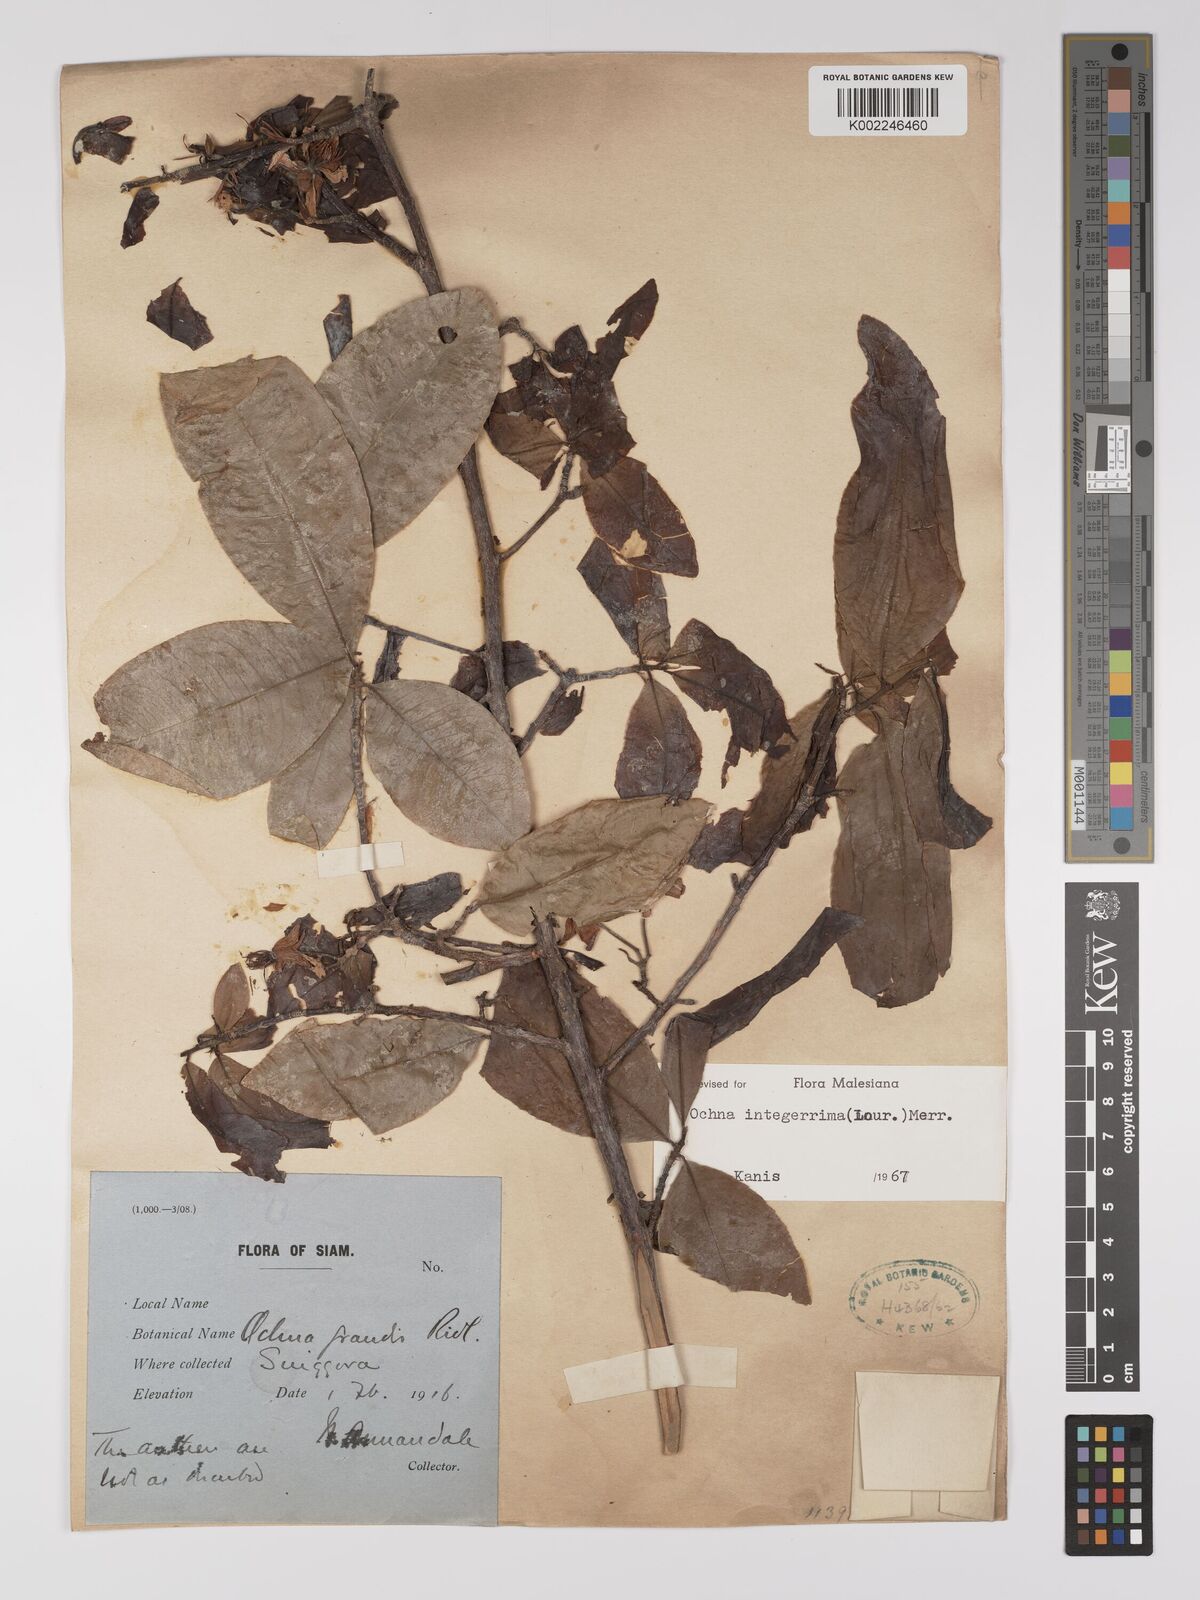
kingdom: Plantae
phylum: Tracheophyta
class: Magnoliopsida
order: Malpighiales
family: Ochnaceae
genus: Ochna
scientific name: Ochna integerrima
